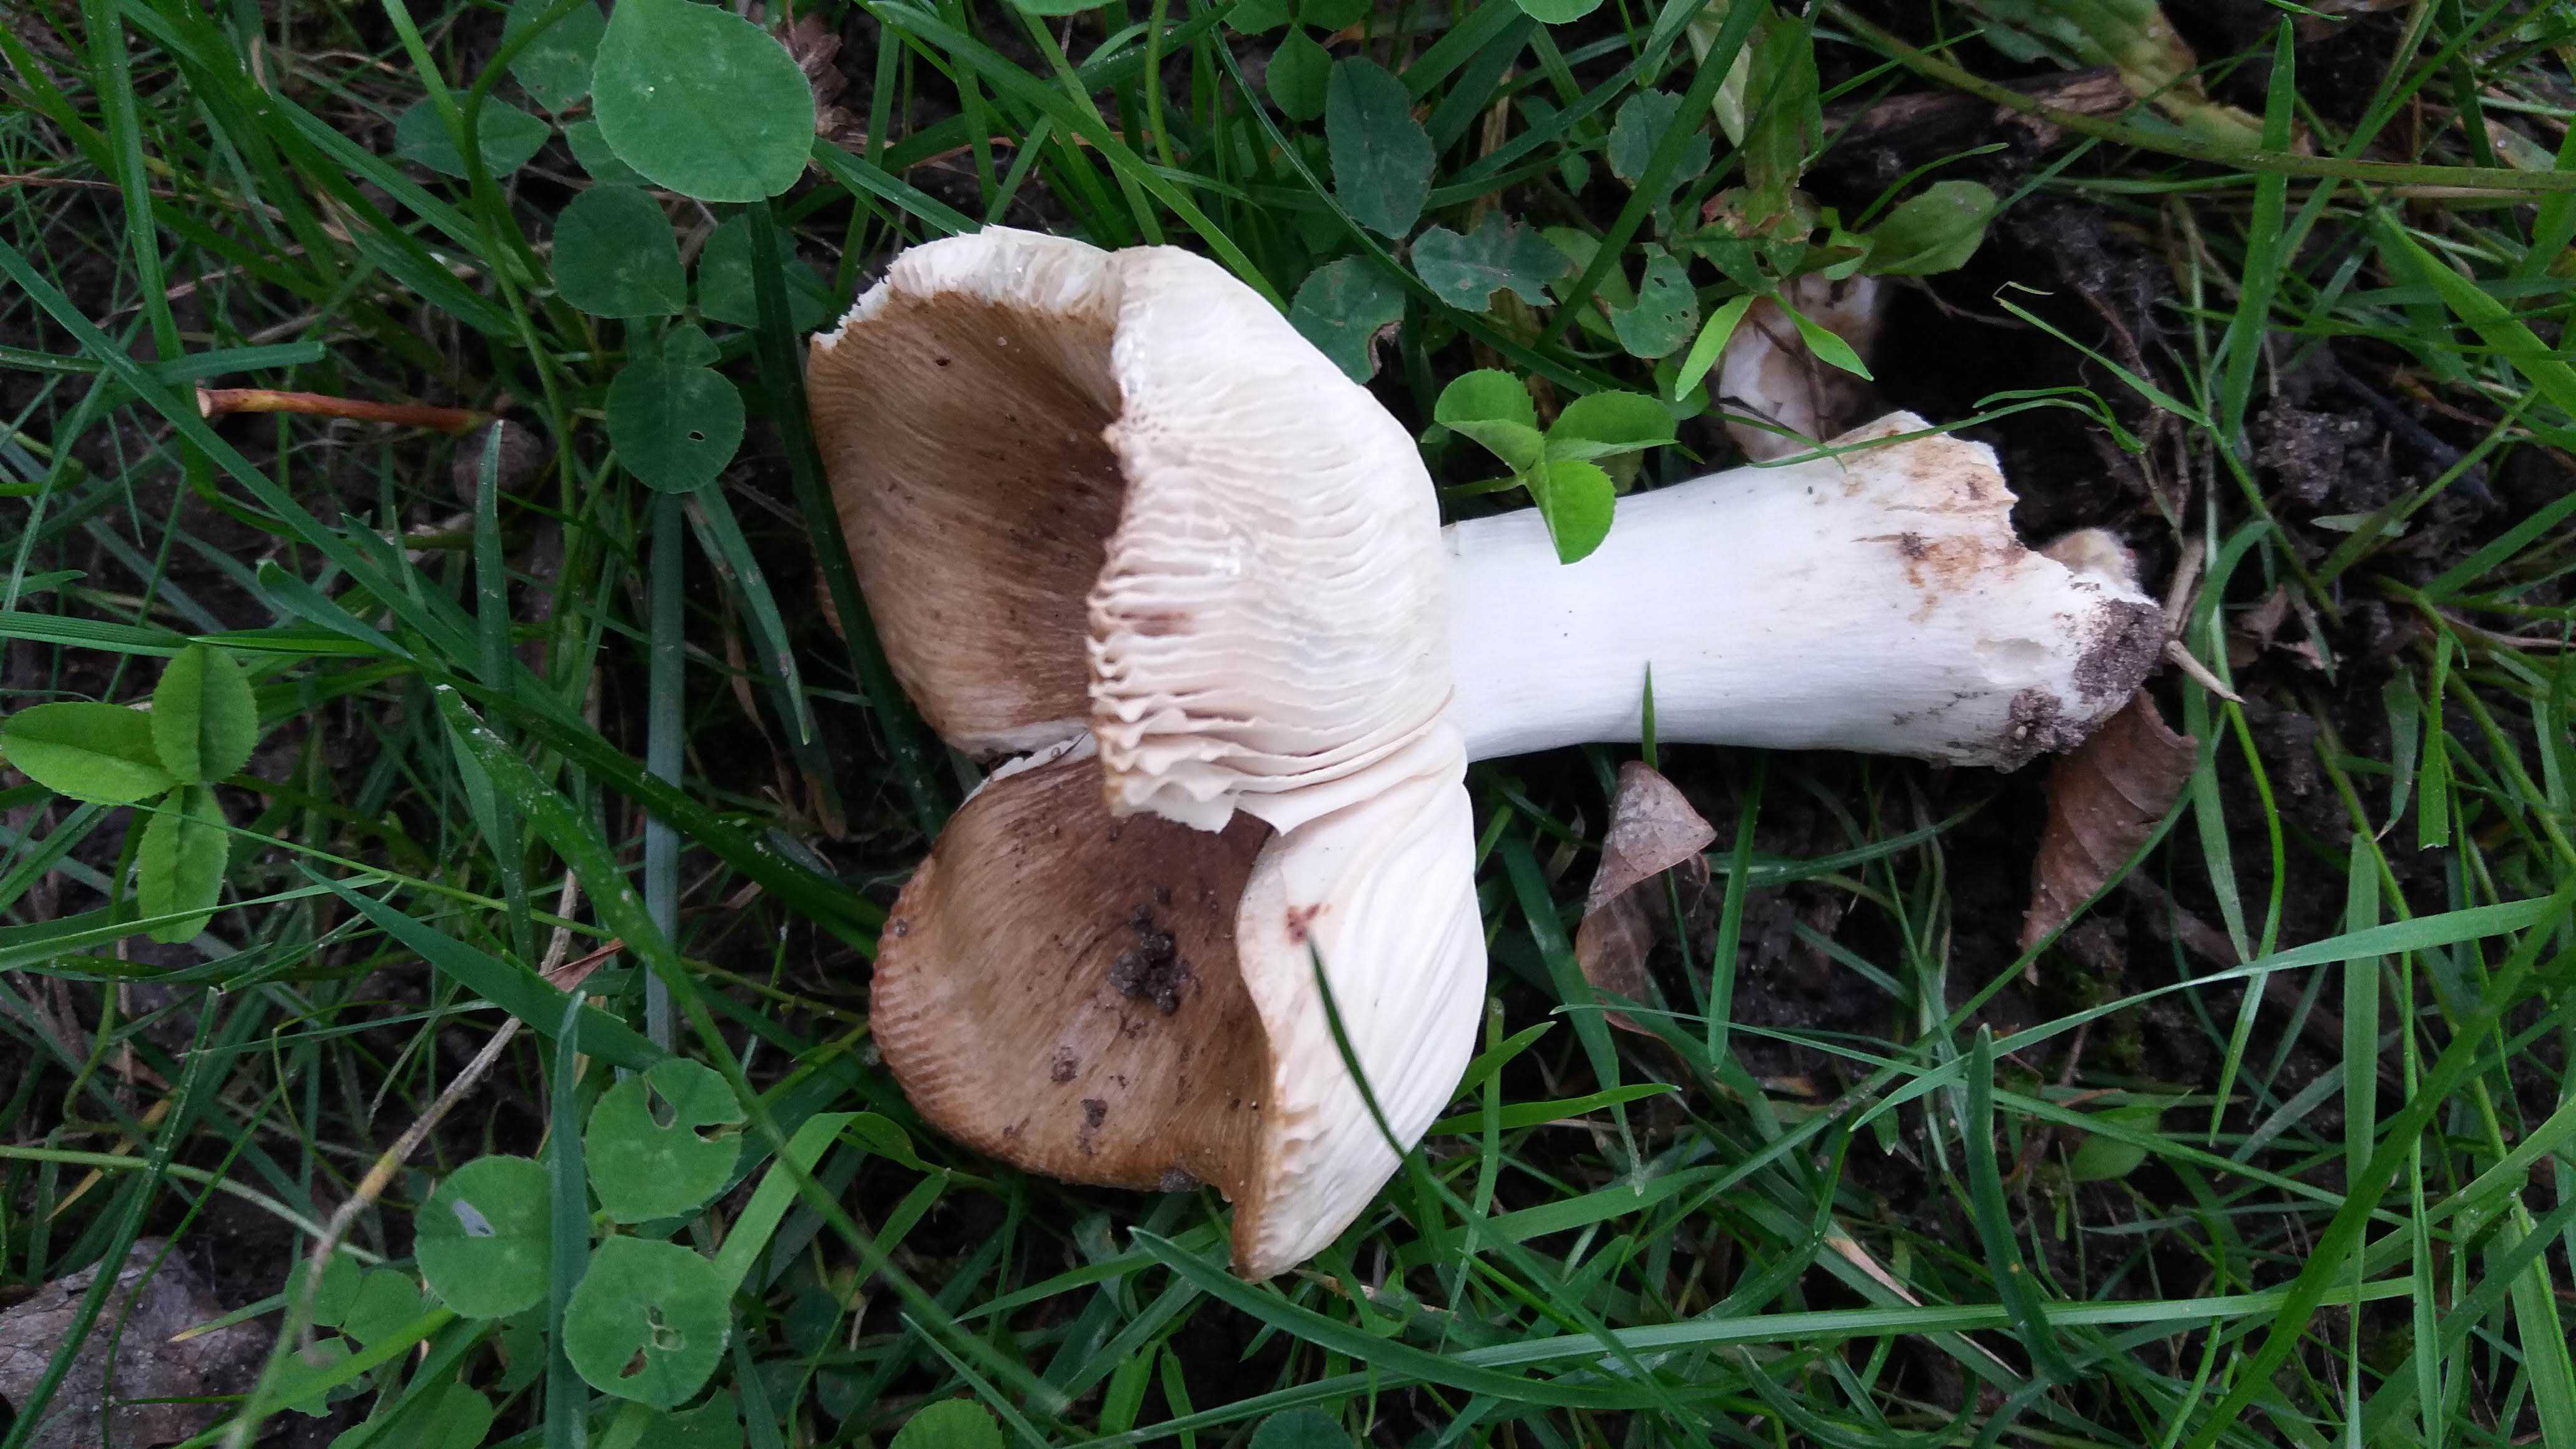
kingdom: Fungi
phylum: Basidiomycota
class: Agaricomycetes
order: Russulales
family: Russulaceae
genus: Russula
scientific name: Russula
